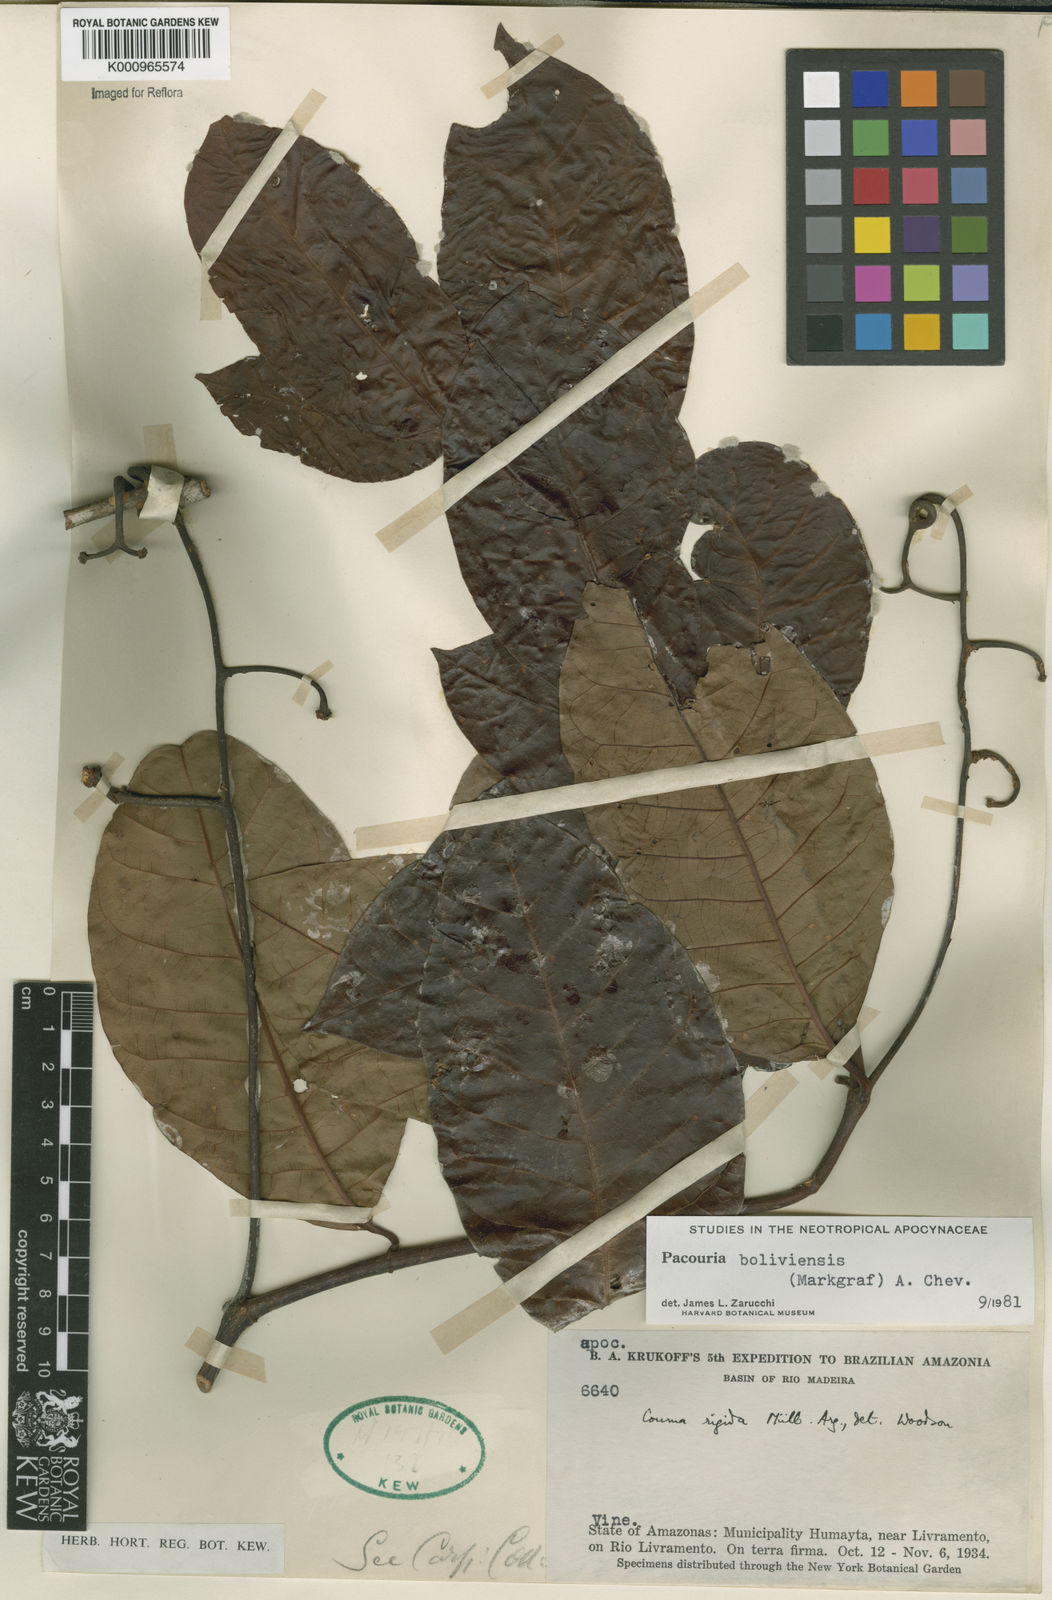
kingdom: Plantae
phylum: Tracheophyta
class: Magnoliopsida
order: Gentianales
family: Apocynaceae
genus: Pacouria
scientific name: Pacouria boliviensis
